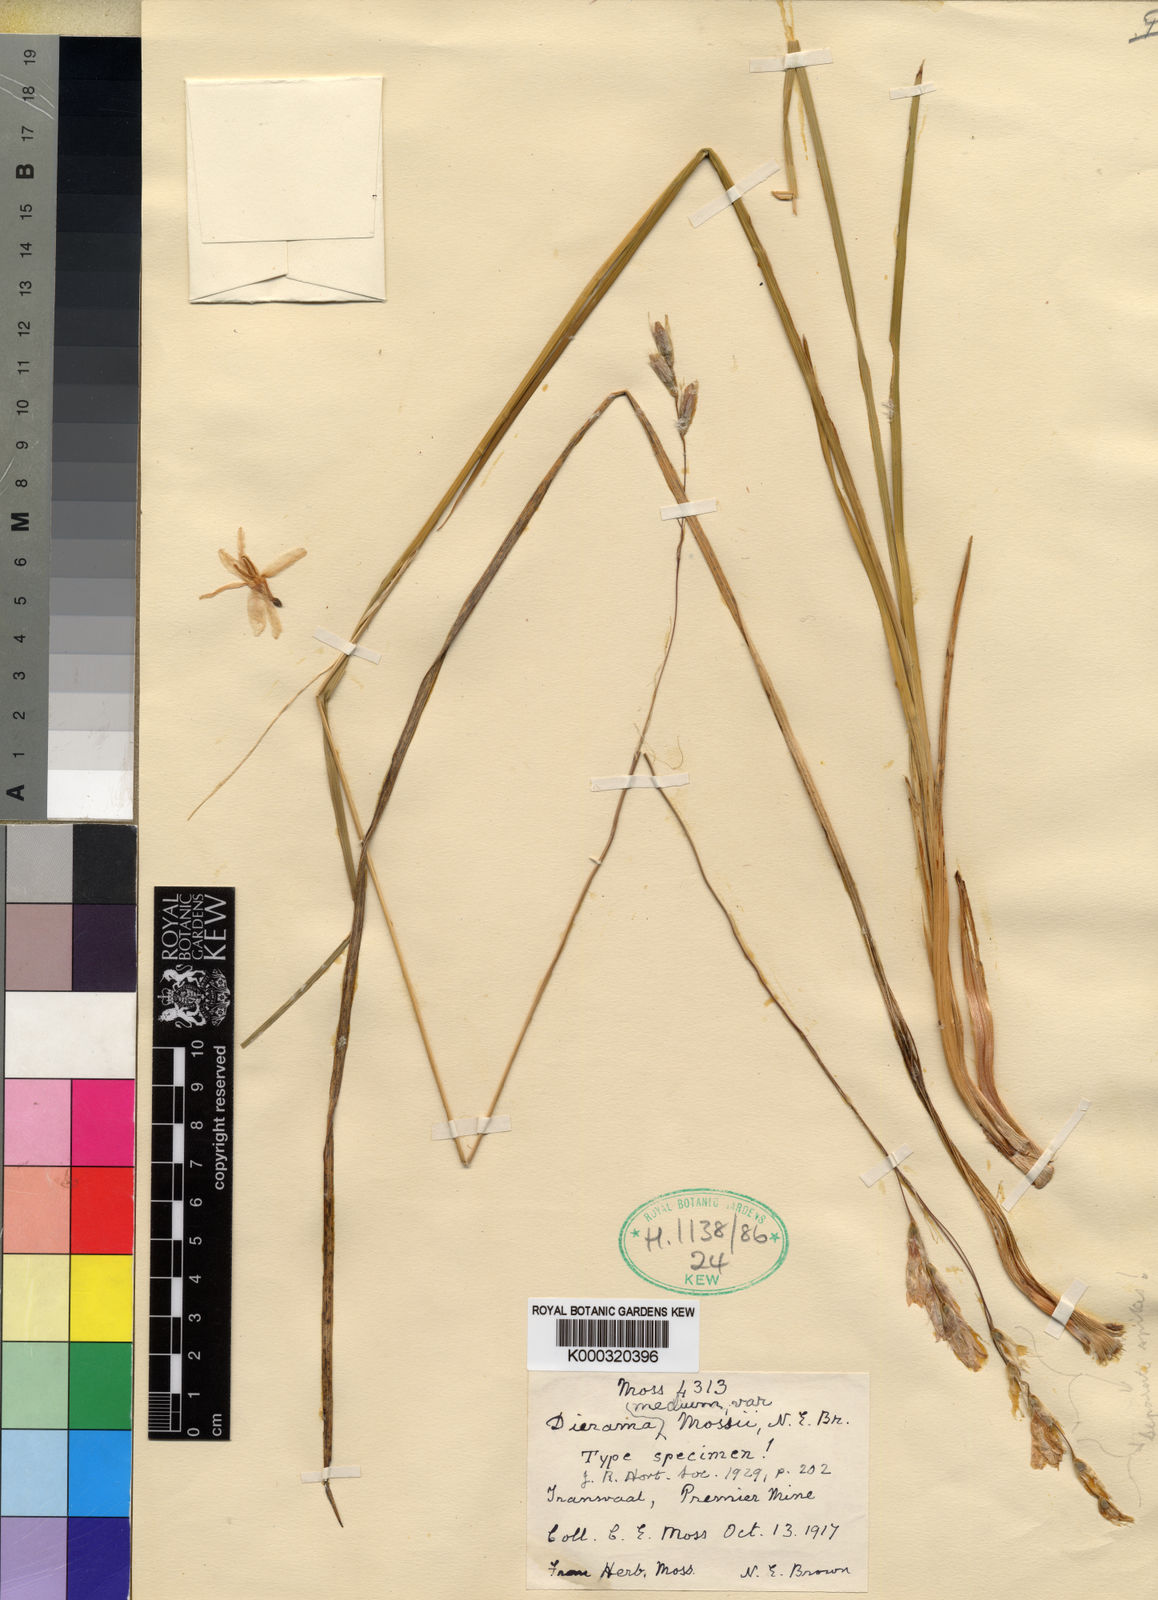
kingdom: Plantae
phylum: Tracheophyta
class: Liliopsida
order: Asparagales
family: Iridaceae
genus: Dierama
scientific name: Dierama mossii
